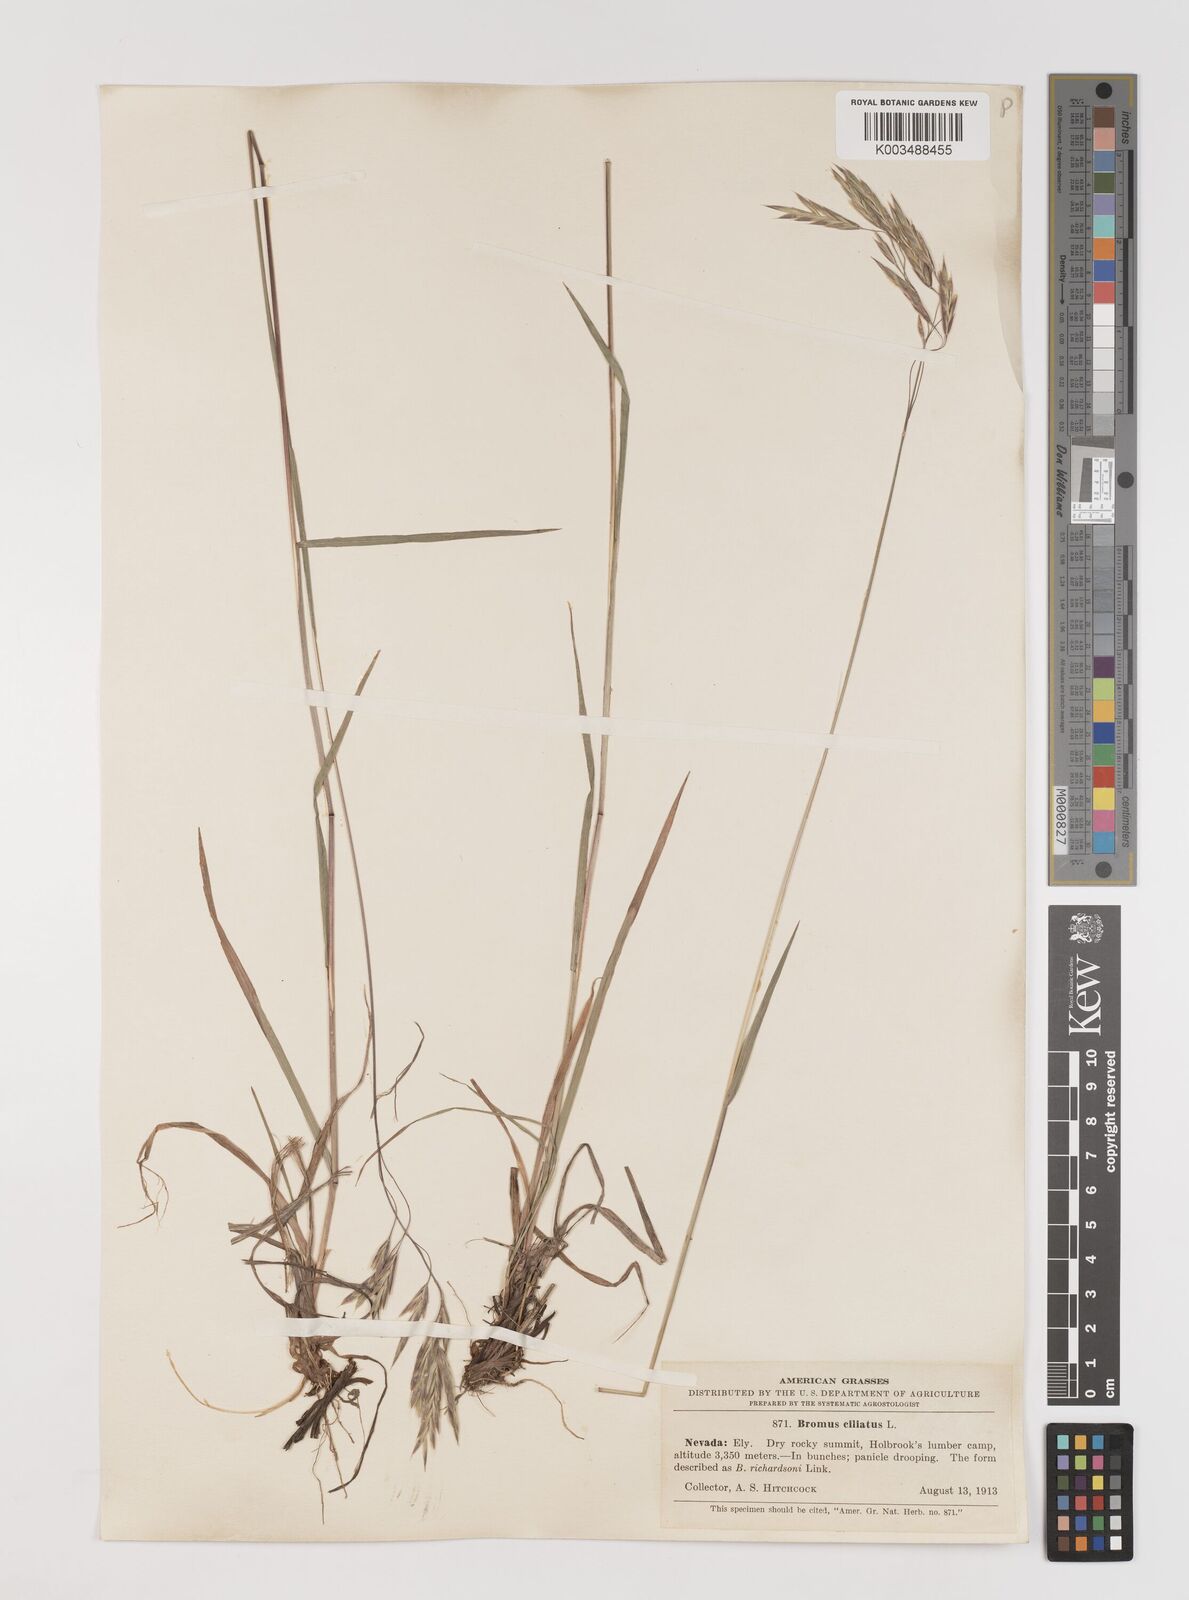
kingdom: Plantae
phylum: Tracheophyta
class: Liliopsida
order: Poales
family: Poaceae
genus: Bromus
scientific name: Bromus ciliatus
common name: Fringe brome
